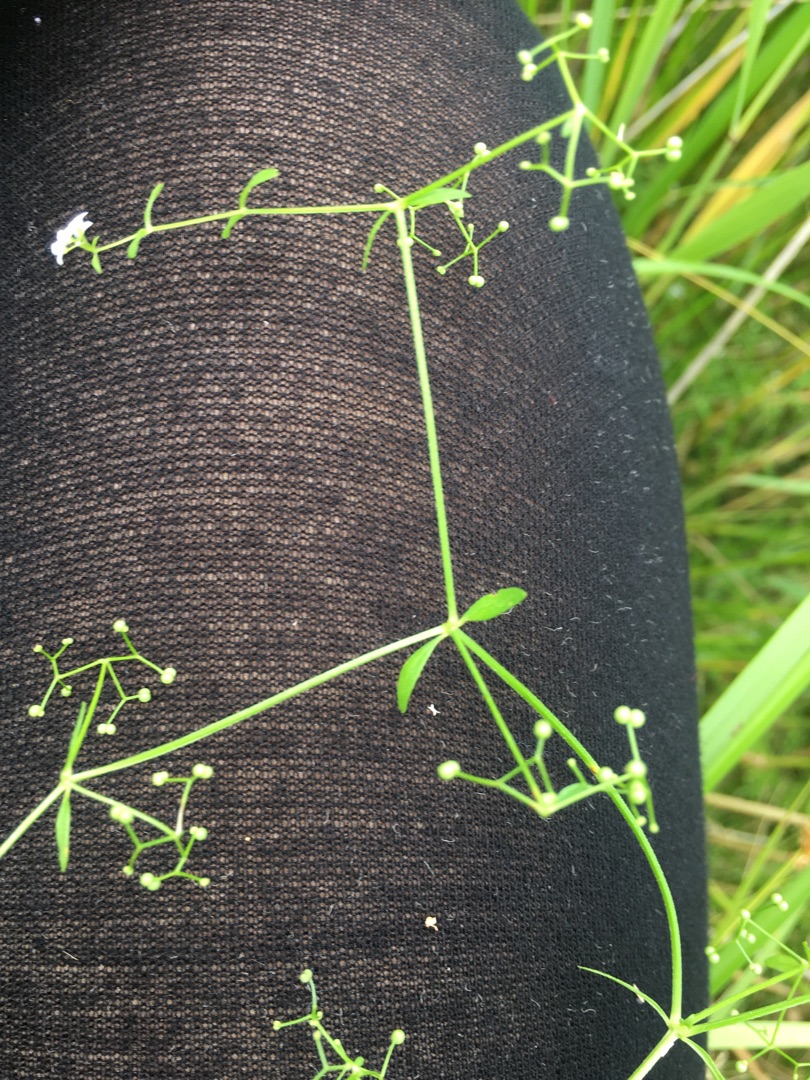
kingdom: Plantae
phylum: Tracheophyta
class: Magnoliopsida
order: Gentianales
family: Rubiaceae
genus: Galium
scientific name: Galium palustre
